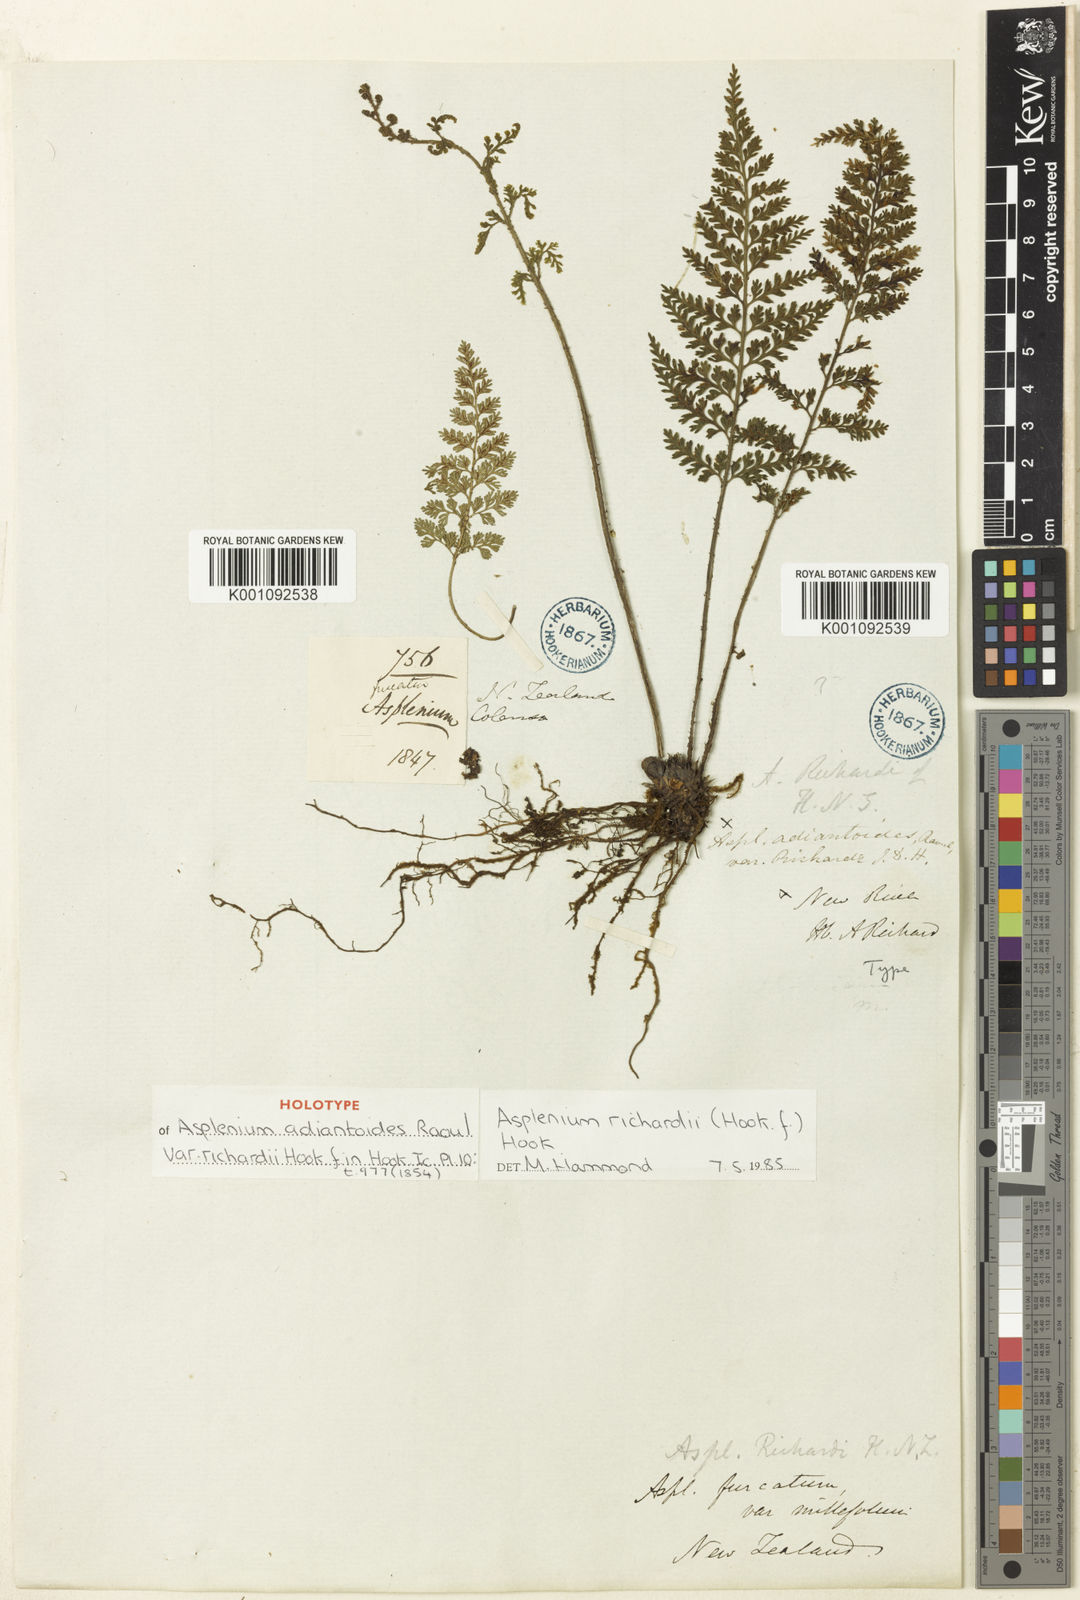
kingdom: Plantae
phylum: Tracheophyta
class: Polypodiopsida
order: Polypodiales
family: Aspleniaceae
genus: Asplenium
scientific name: Asplenium richardii
